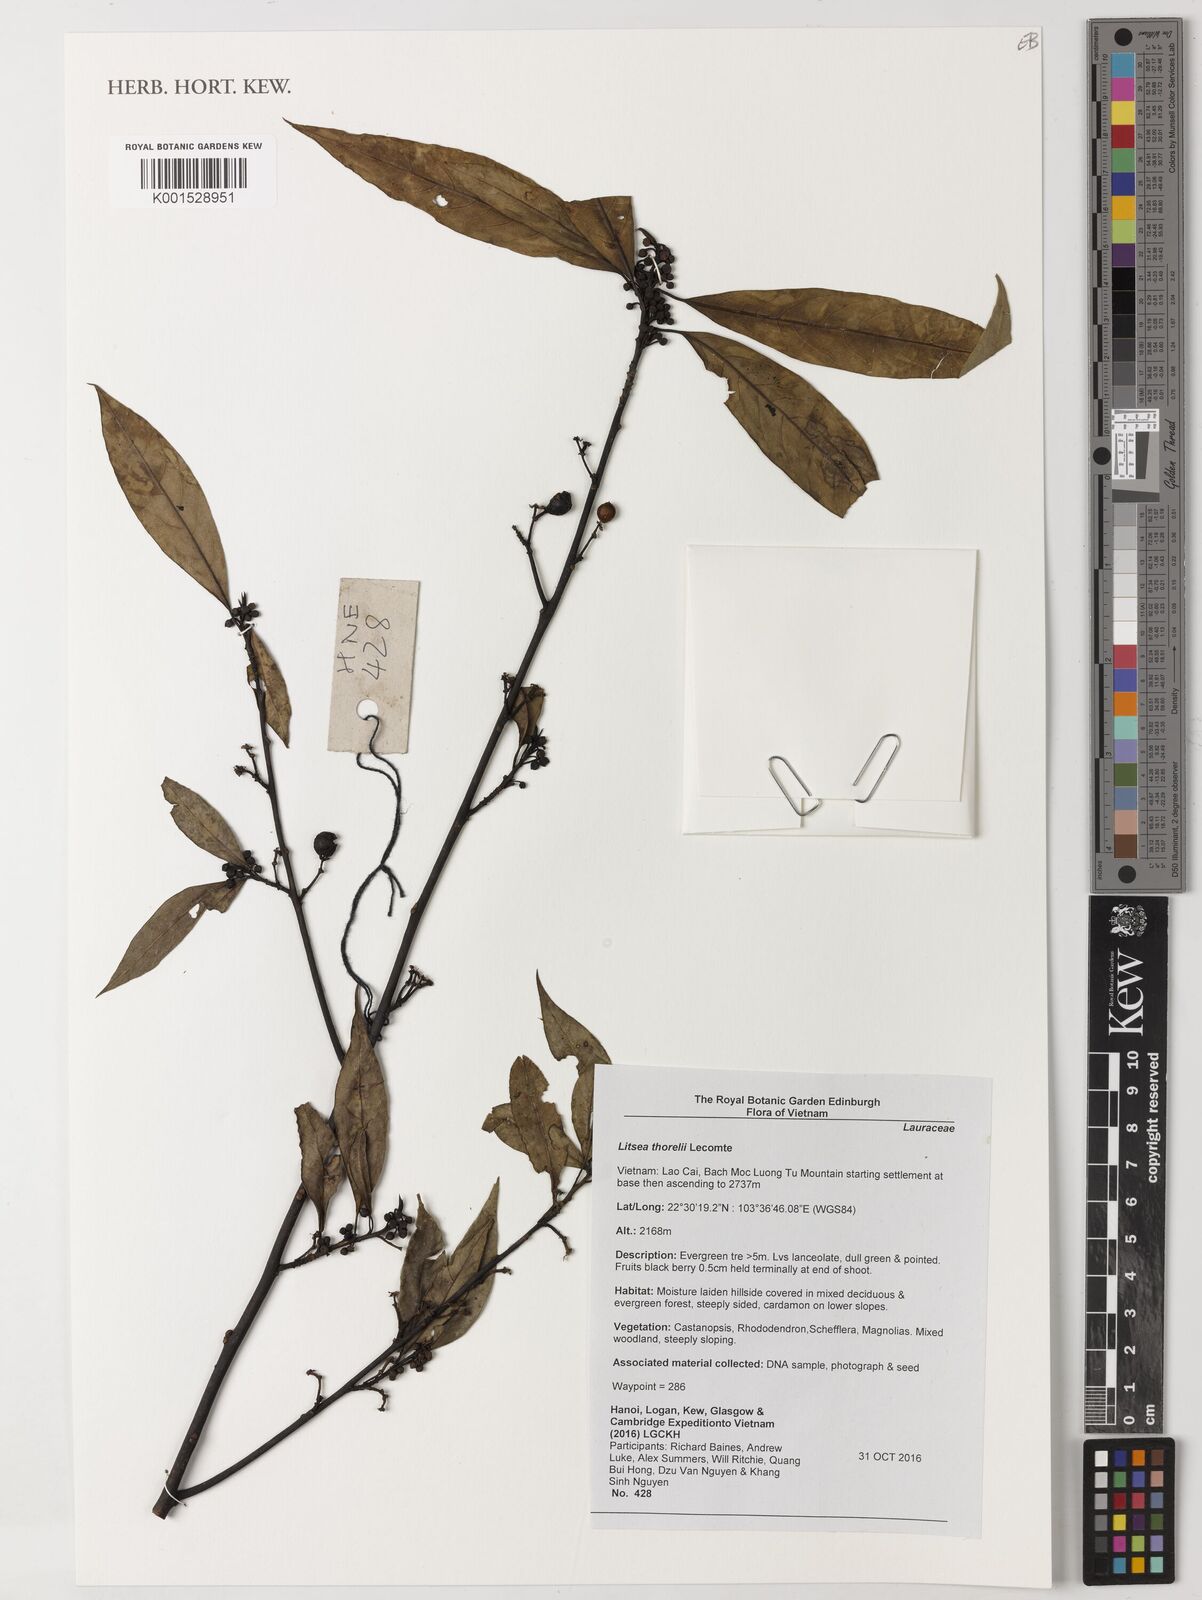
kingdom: Plantae
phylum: Tracheophyta
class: Magnoliopsida
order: Laurales
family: Lauraceae
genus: Litsea
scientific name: Litsea thorelii
